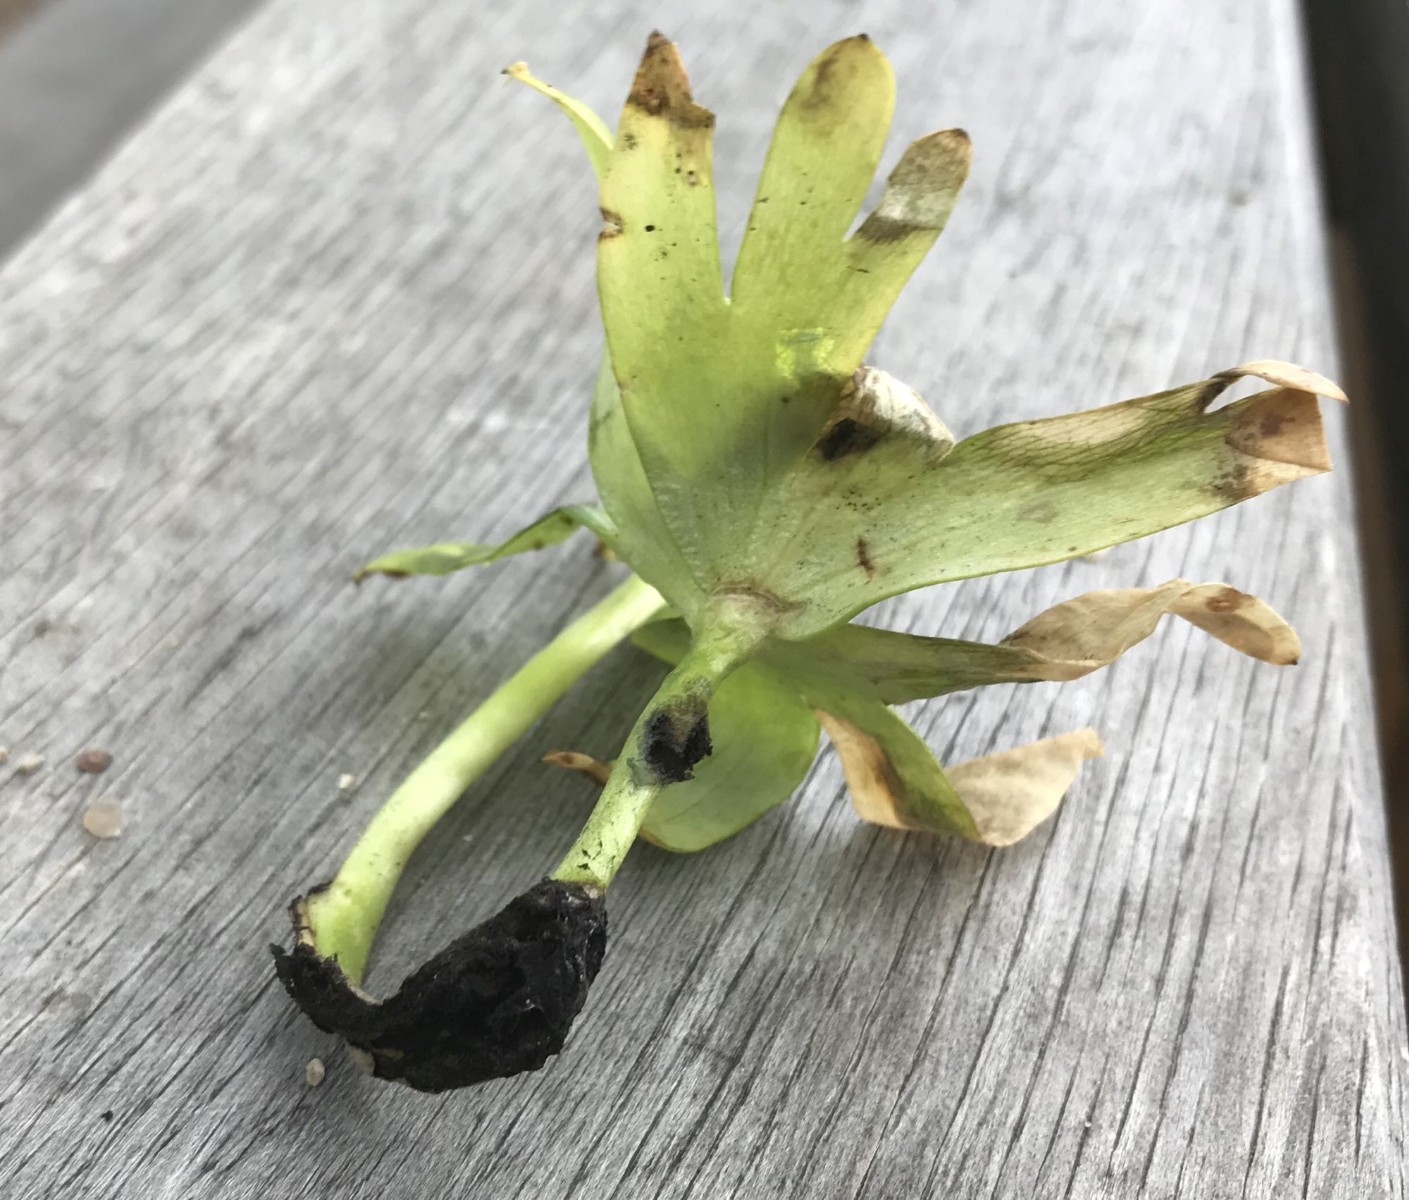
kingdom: Fungi
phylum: Basidiomycota
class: Ustilaginomycetes
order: Urocystidales
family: Urocystidaceae
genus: Urocystis
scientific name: Urocystis eranthidis
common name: erantis-brand
